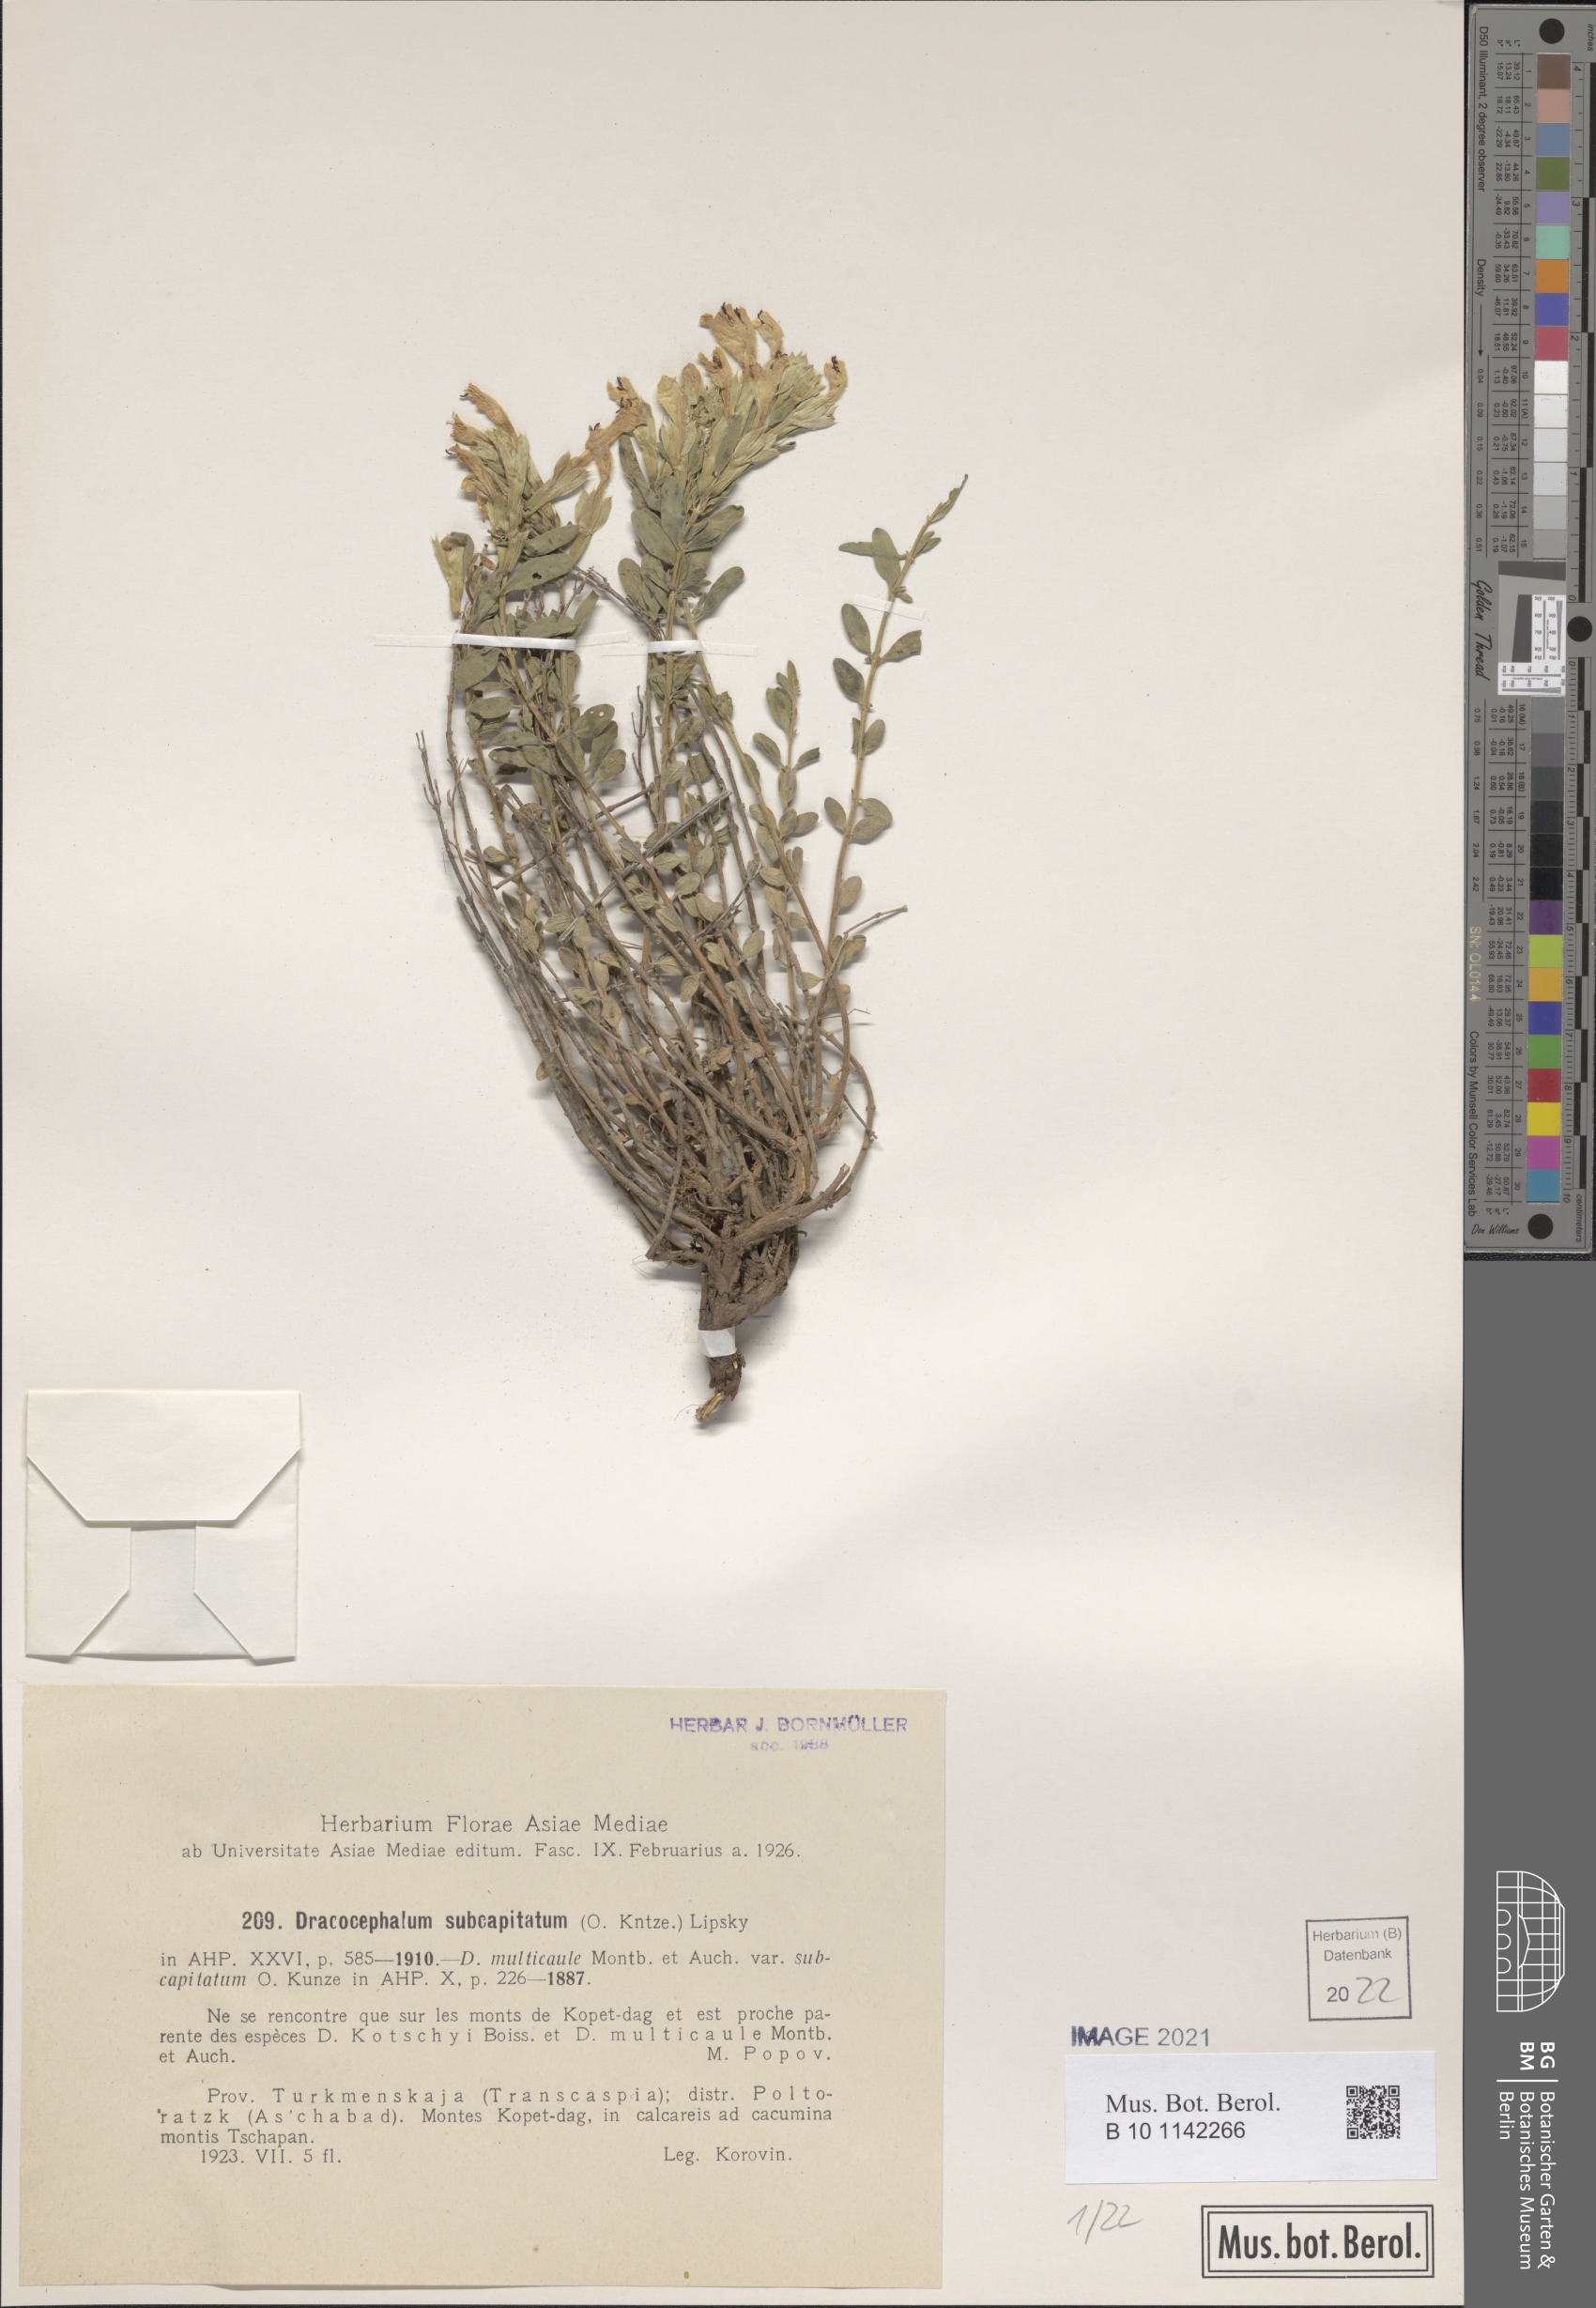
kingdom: Plantae
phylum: Tracheophyta
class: Magnoliopsida
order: Lamiales
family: Lamiaceae
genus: Dracocephalum
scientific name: Dracocephalum subcapitatum
